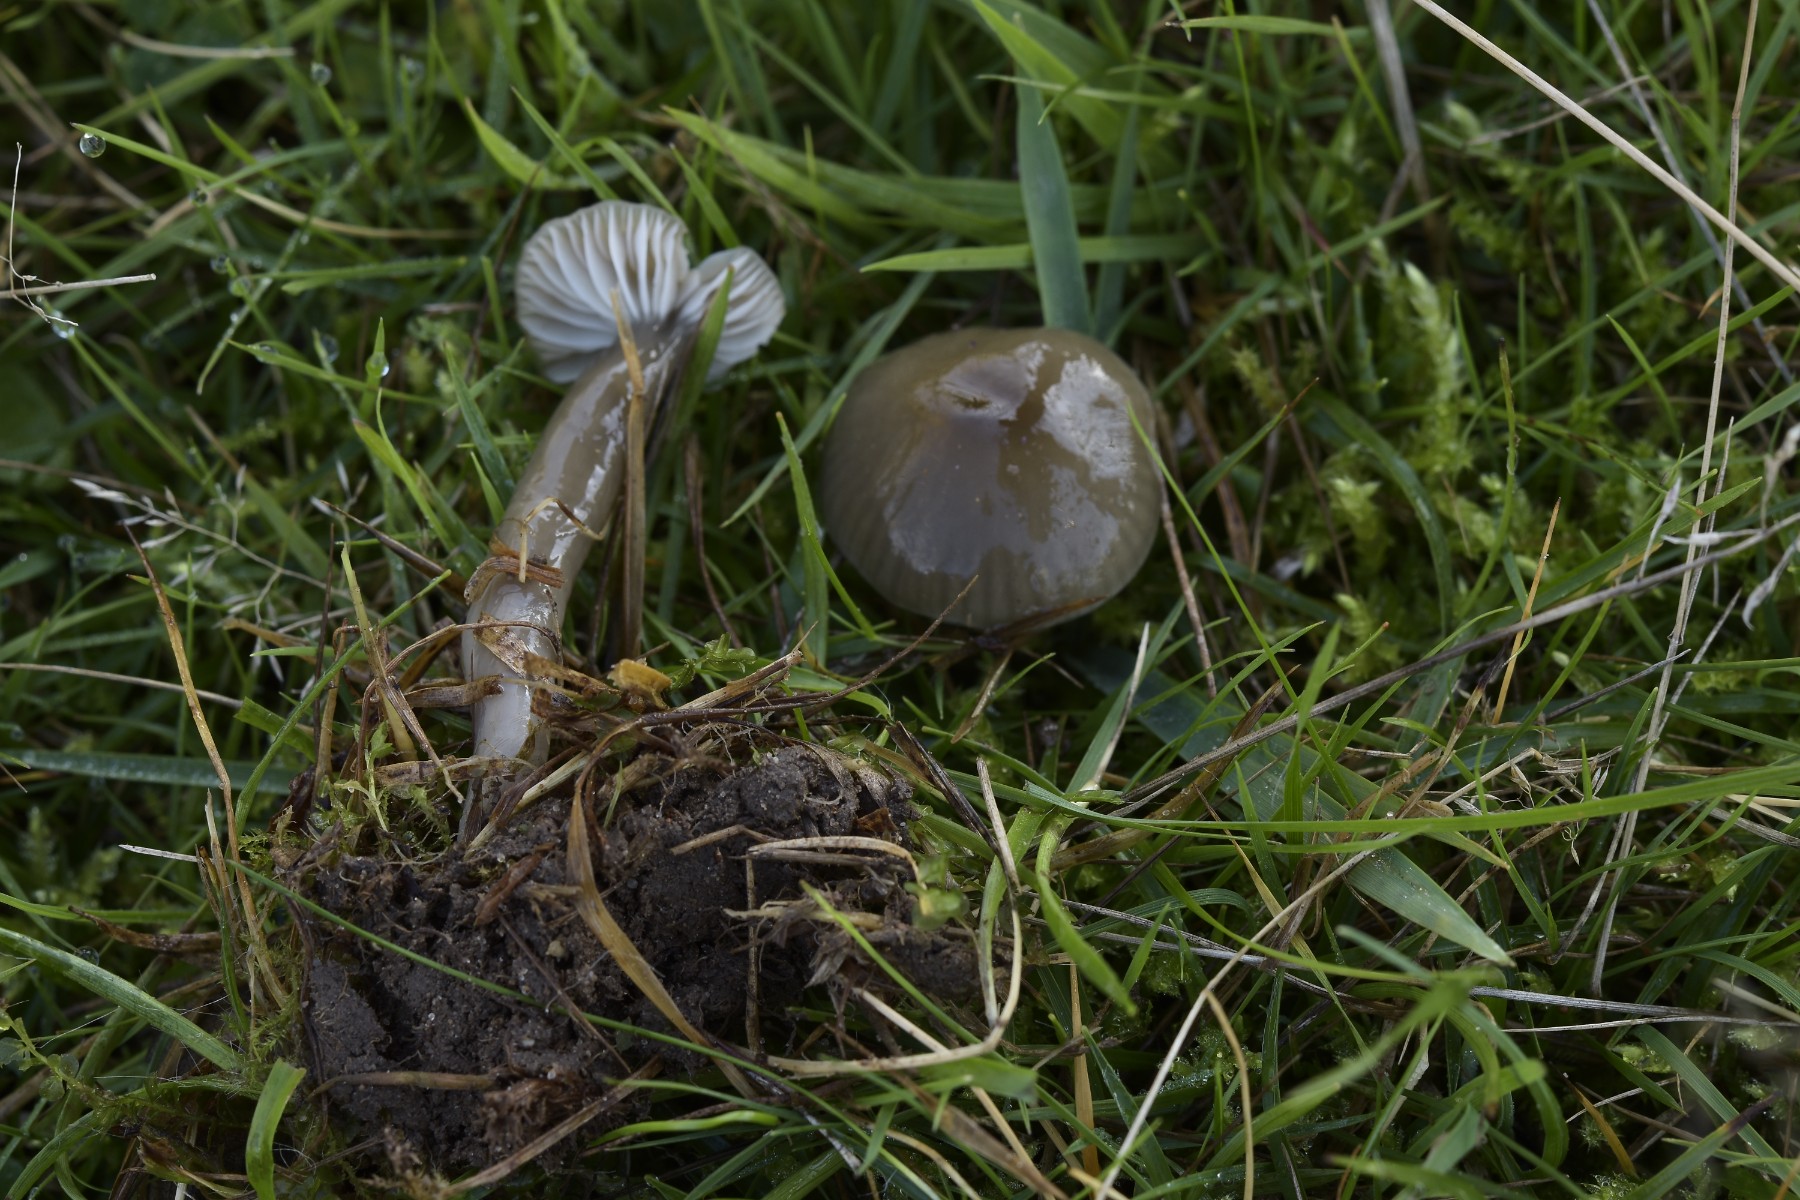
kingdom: Fungi
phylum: Basidiomycota
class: Agaricomycetes
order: Agaricales
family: Hygrophoraceae
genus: Gliophorus
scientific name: Gliophorus irrigatus
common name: slimet vokshat
